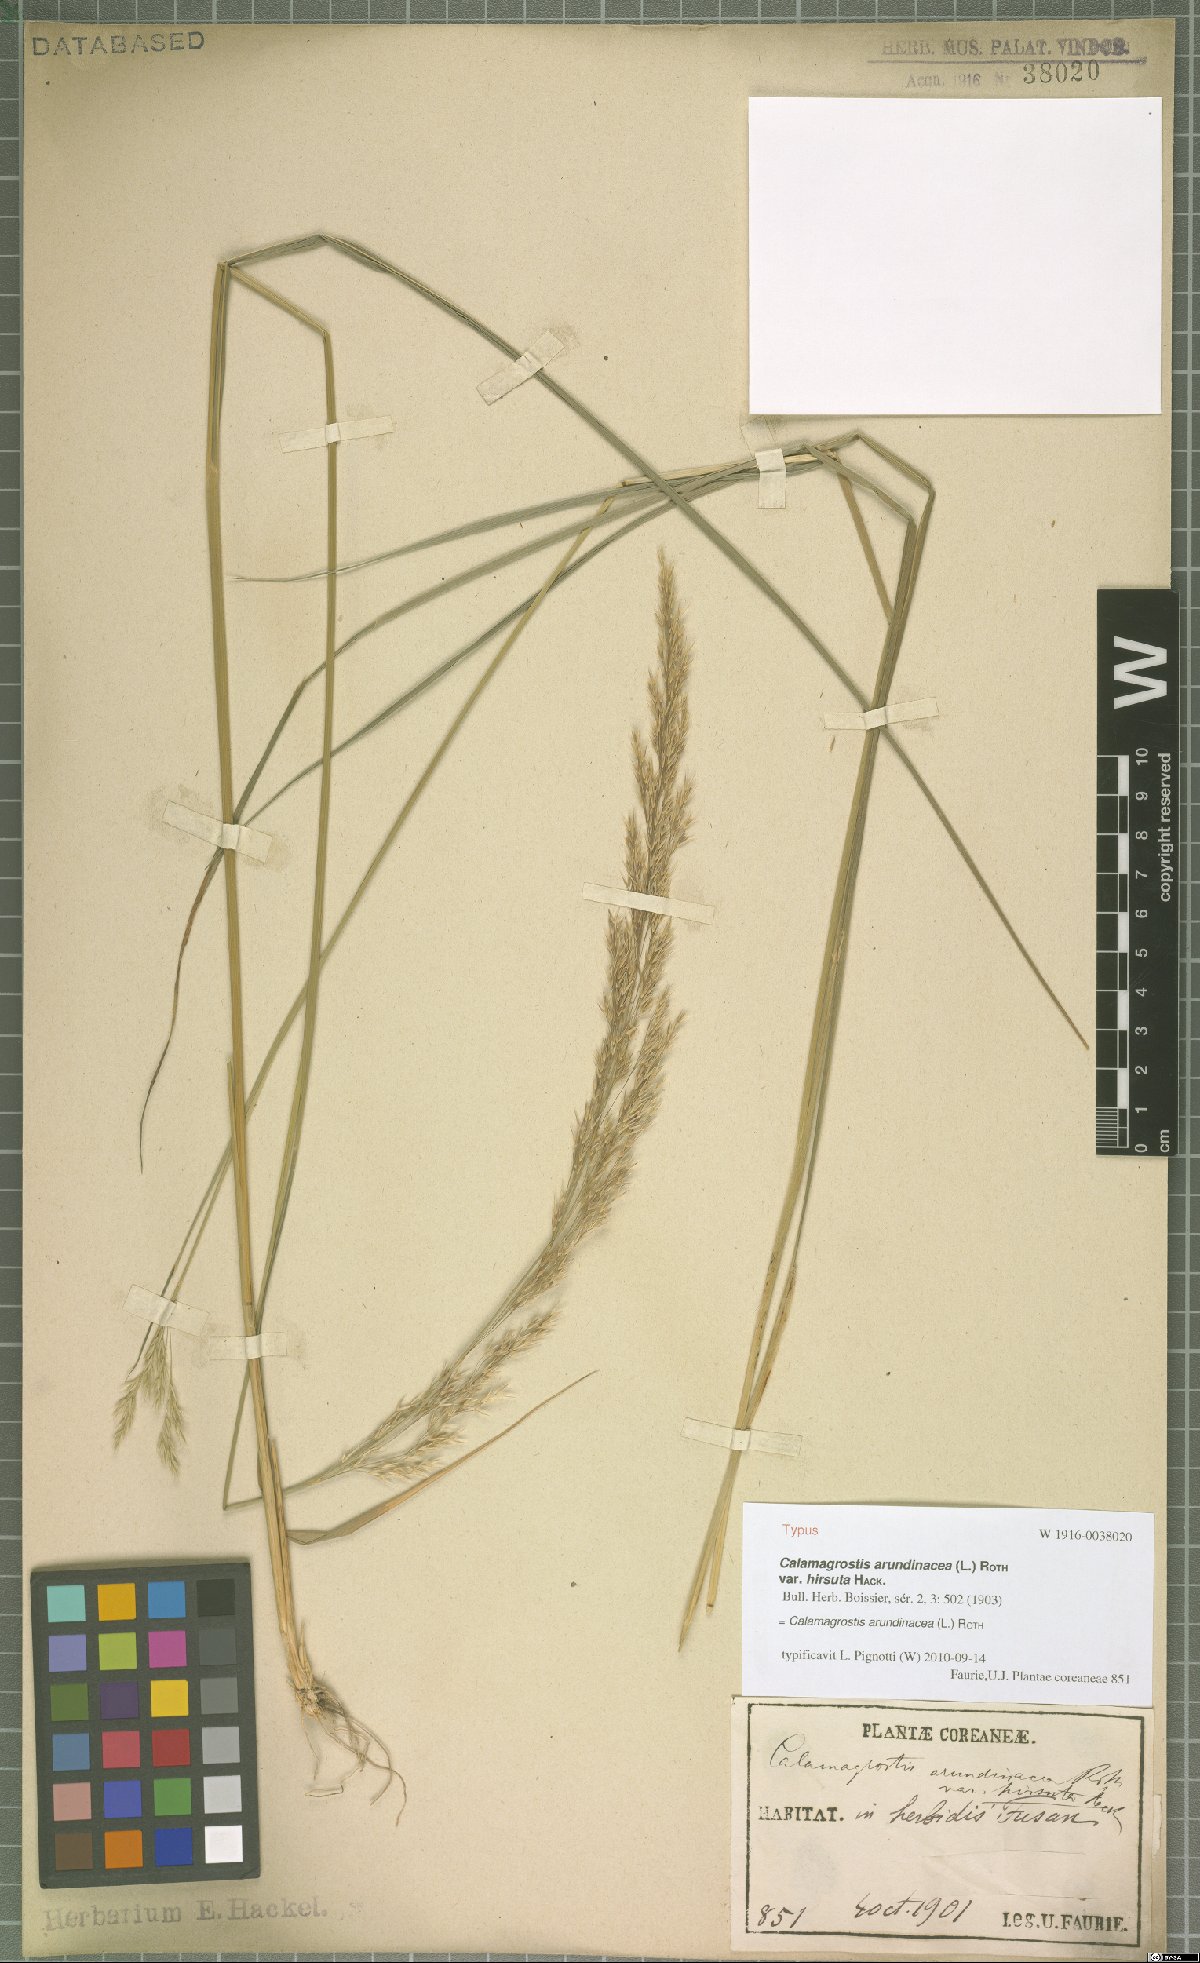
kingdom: Plantae
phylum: Tracheophyta
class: Liliopsida
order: Poales
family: Poaceae
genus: Calamagrostis
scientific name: Calamagrostis arundinacea
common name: Metskastik
